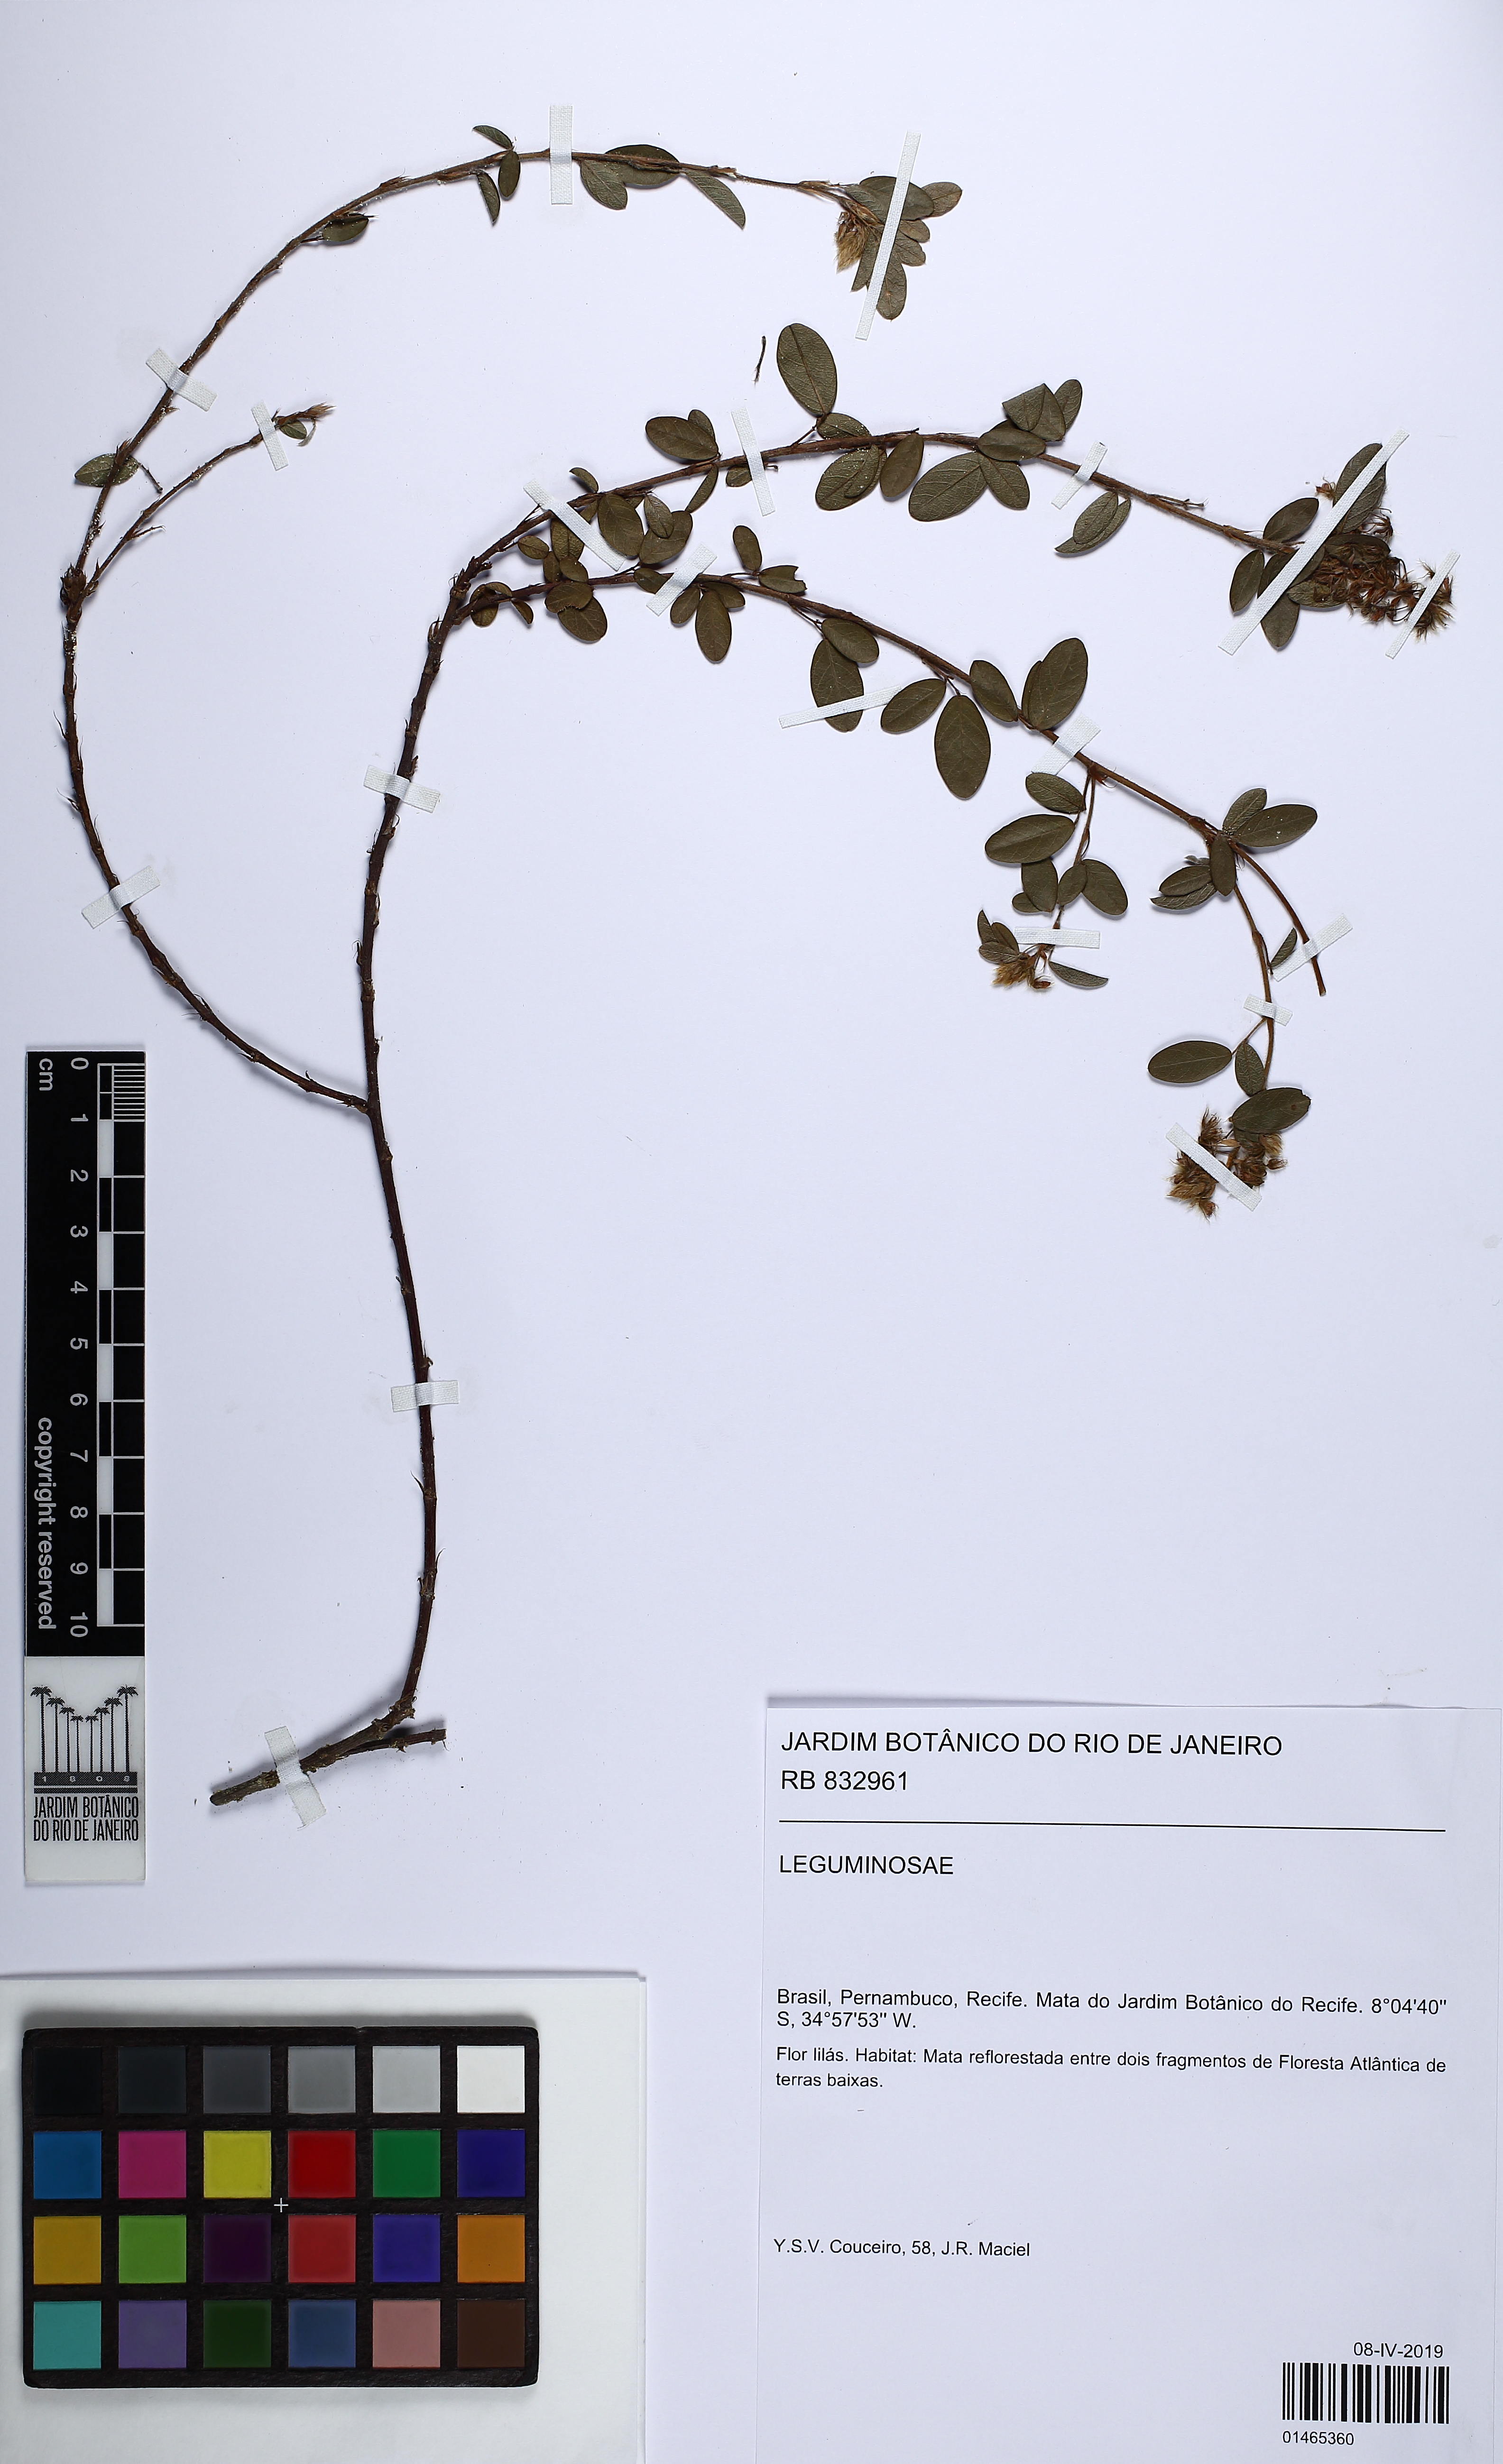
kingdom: Plantae
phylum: Tracheophyta
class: Magnoliopsida
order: Fabales
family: Fabaceae
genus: Grona
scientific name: Grona barbata
